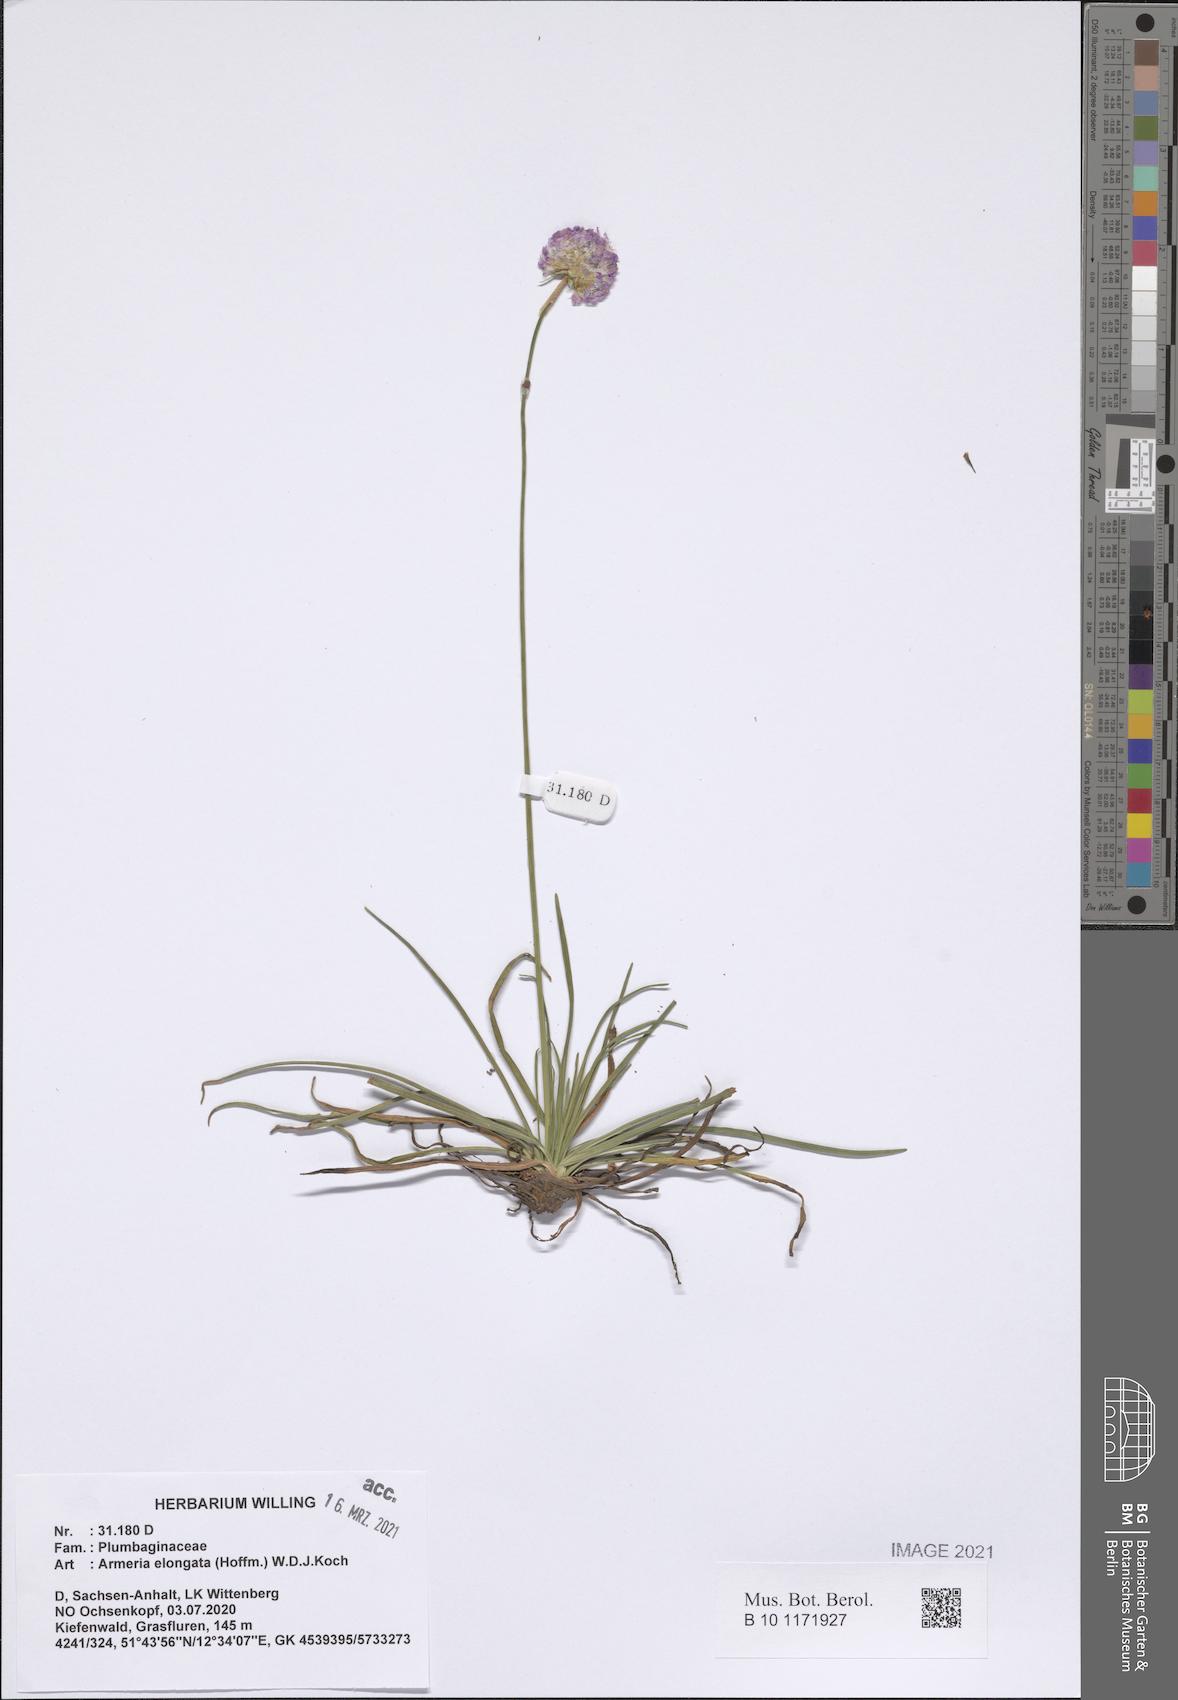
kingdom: Plantae
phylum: Tracheophyta
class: Magnoliopsida
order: Caryophyllales
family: Plumbaginaceae
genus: Armeria
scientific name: Armeria maritima
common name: Thrift
